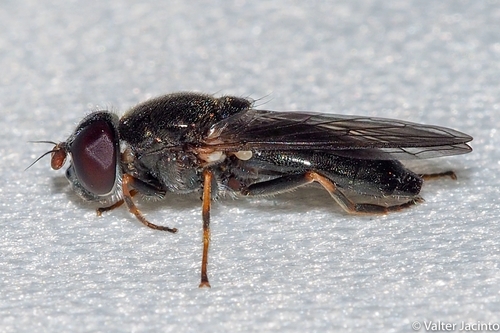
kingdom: Animalia
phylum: Arthropoda
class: Insecta
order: Diptera
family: Syrphidae
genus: Cheilosia
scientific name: Cheilosia ruffipes
